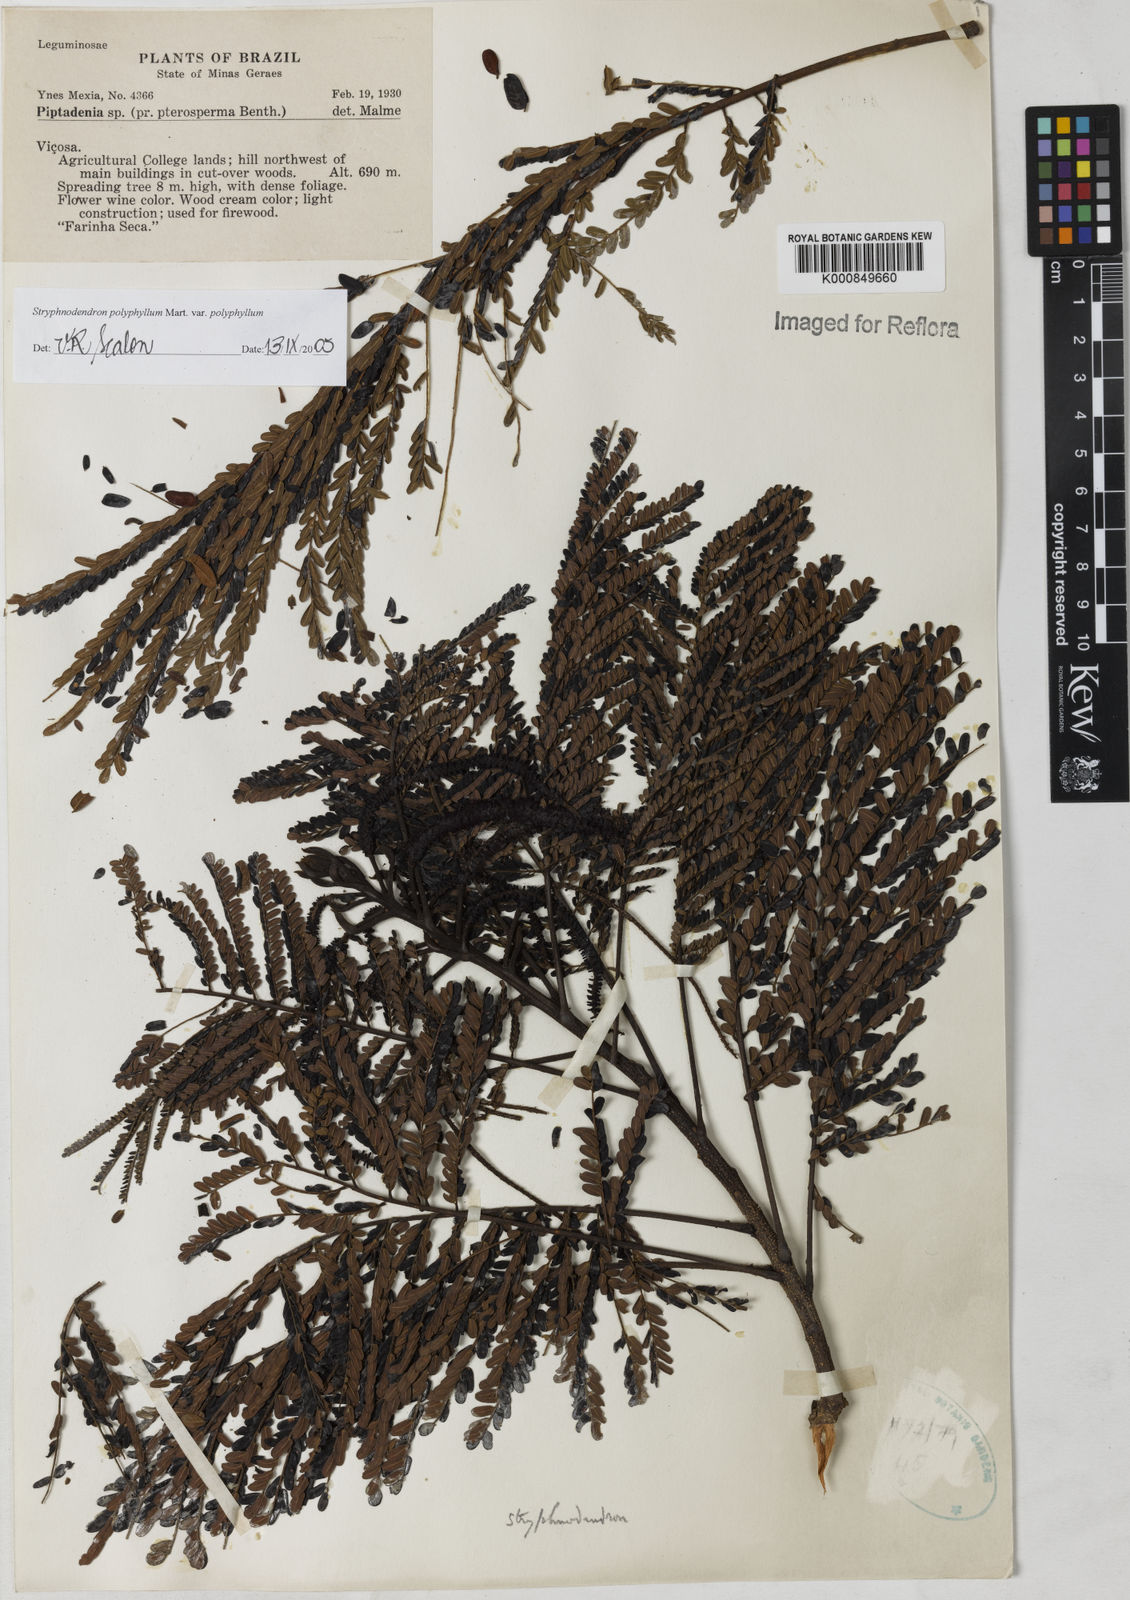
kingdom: Plantae
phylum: Tracheophyta
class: Magnoliopsida
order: Fabales
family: Fabaceae
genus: Stryphnodendron
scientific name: Stryphnodendron polyphyllum
